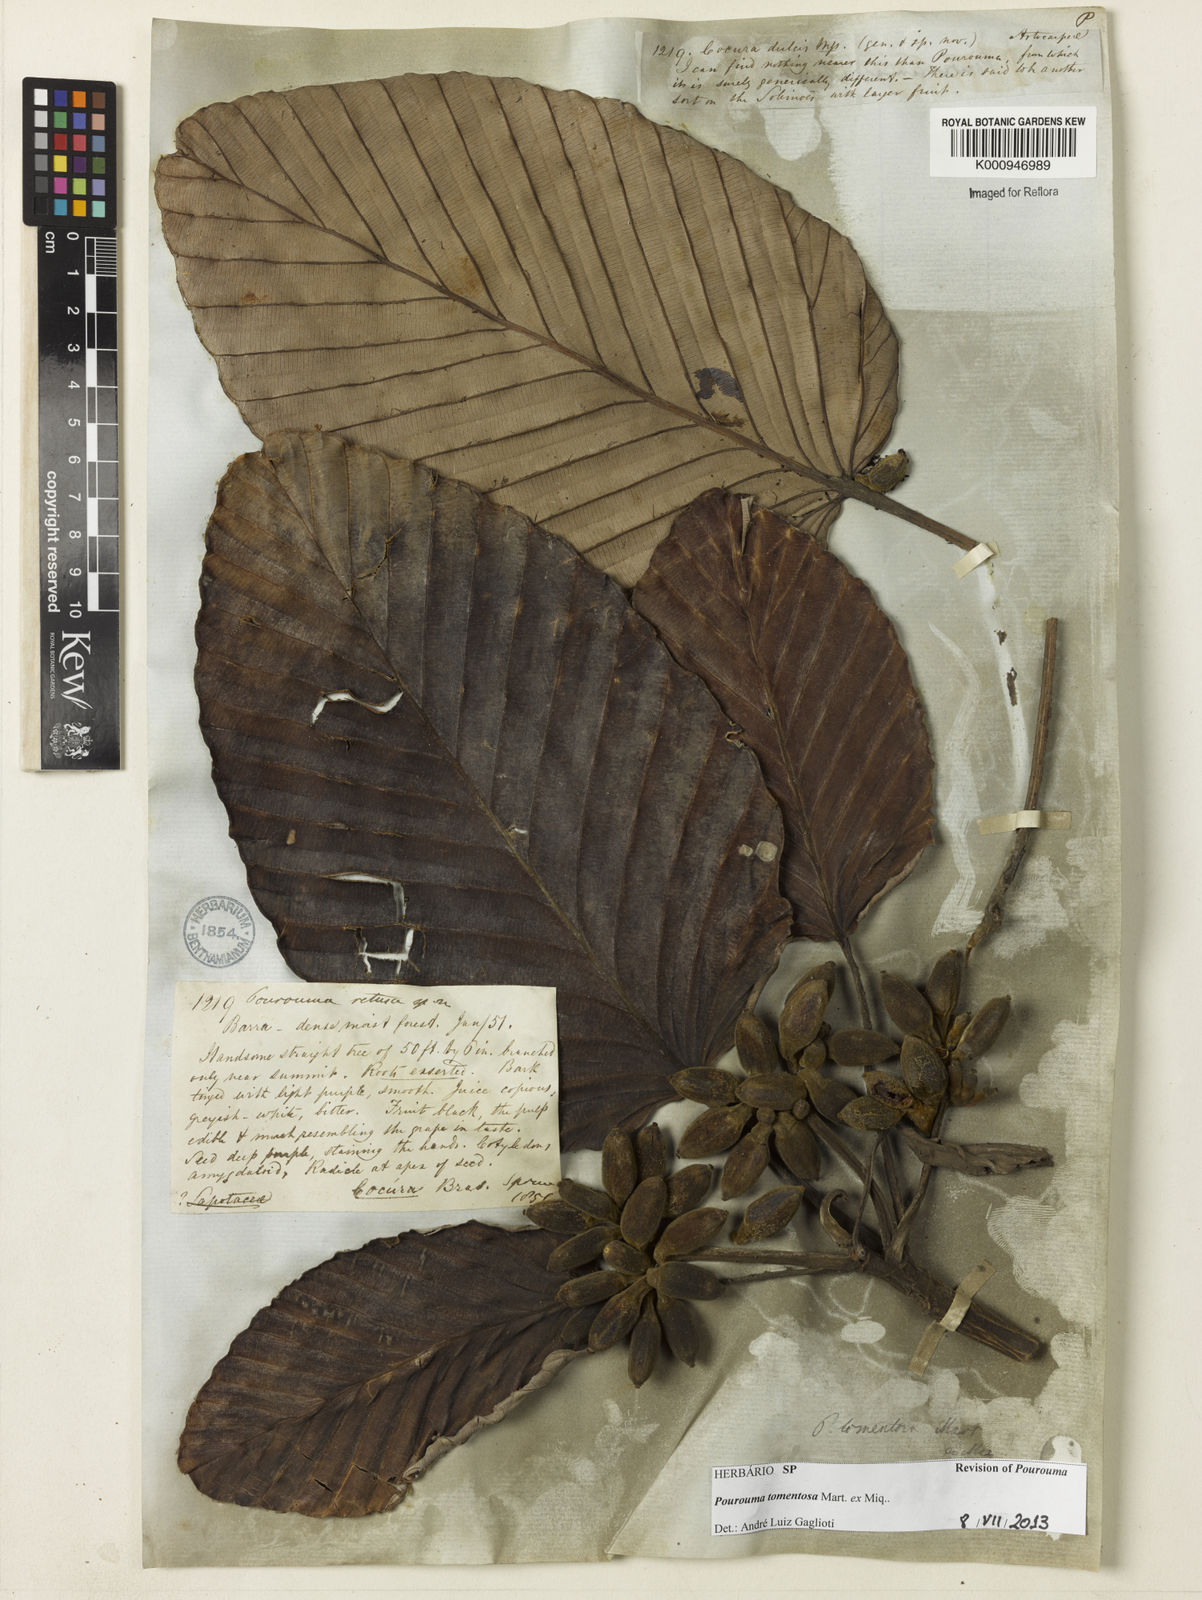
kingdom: Plantae
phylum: Tracheophyta
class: Magnoliopsida
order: Rosales
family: Urticaceae
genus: Pourouma
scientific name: Pourouma tomentosa
